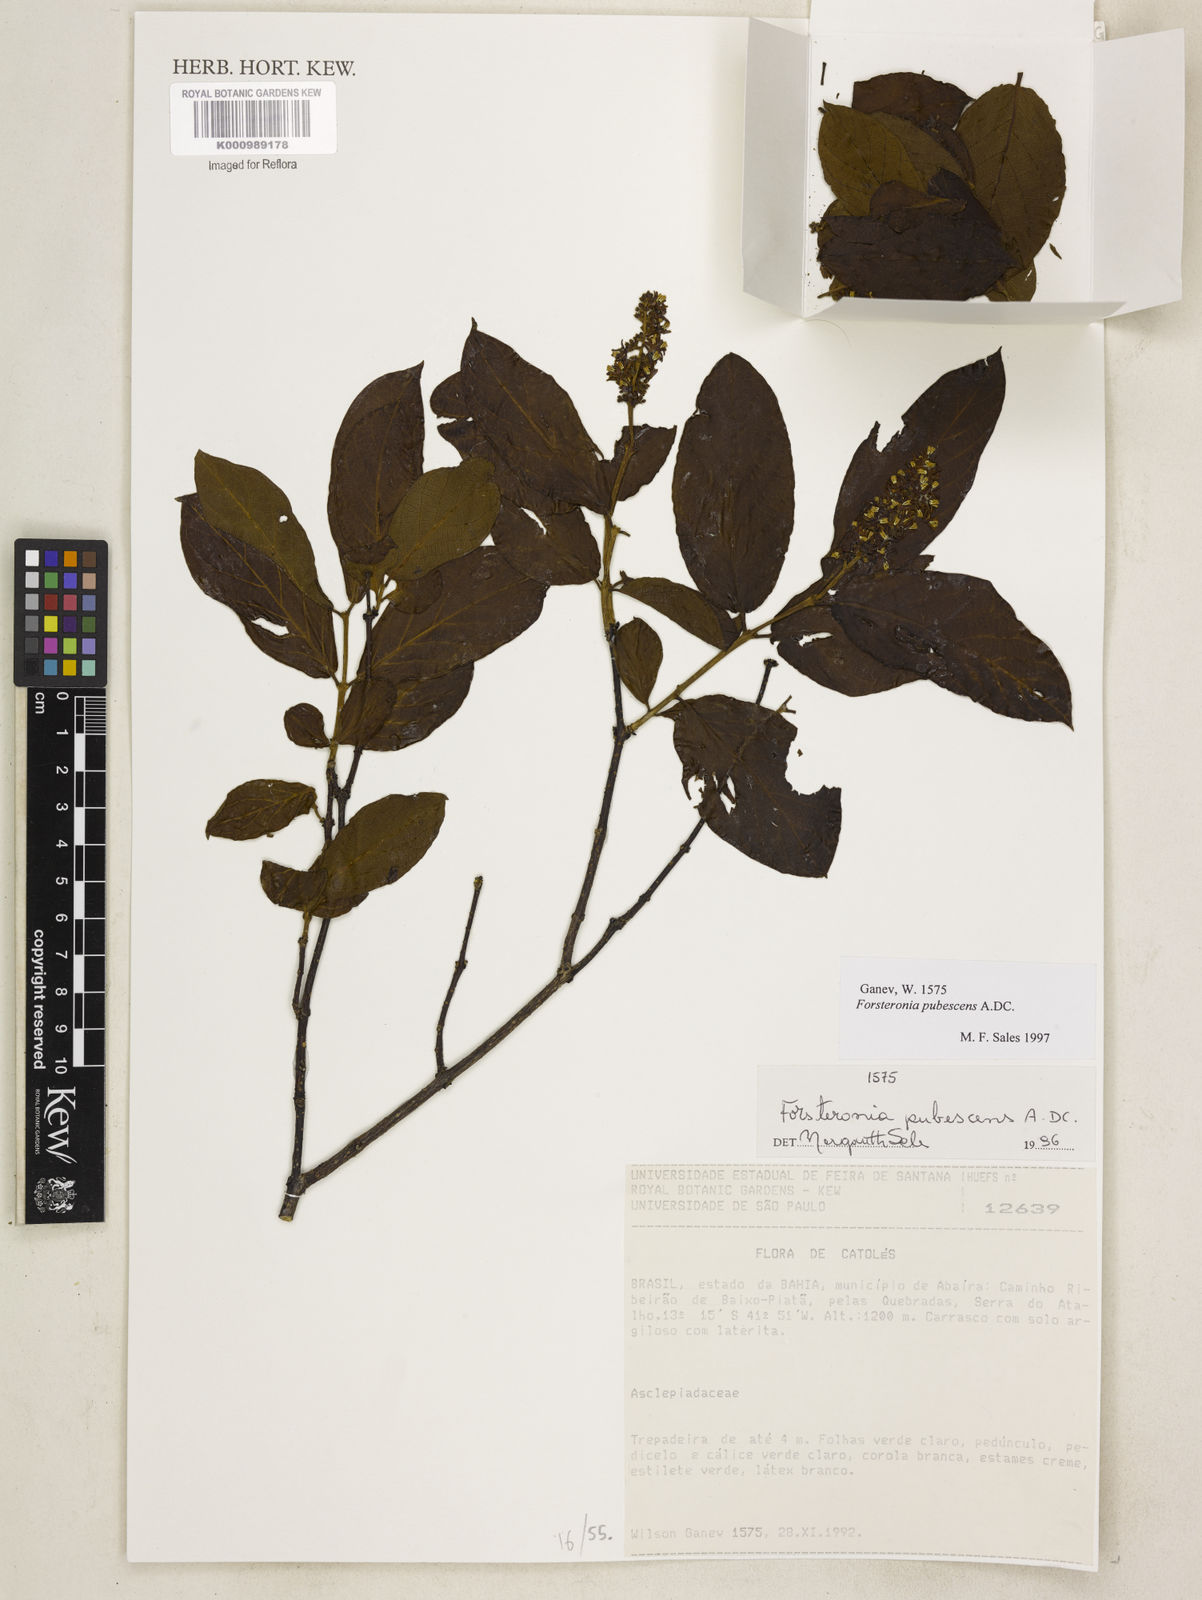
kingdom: Plantae
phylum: Tracheophyta
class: Magnoliopsida
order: Gentianales
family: Apocynaceae
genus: Forsteronia
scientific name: Forsteronia
